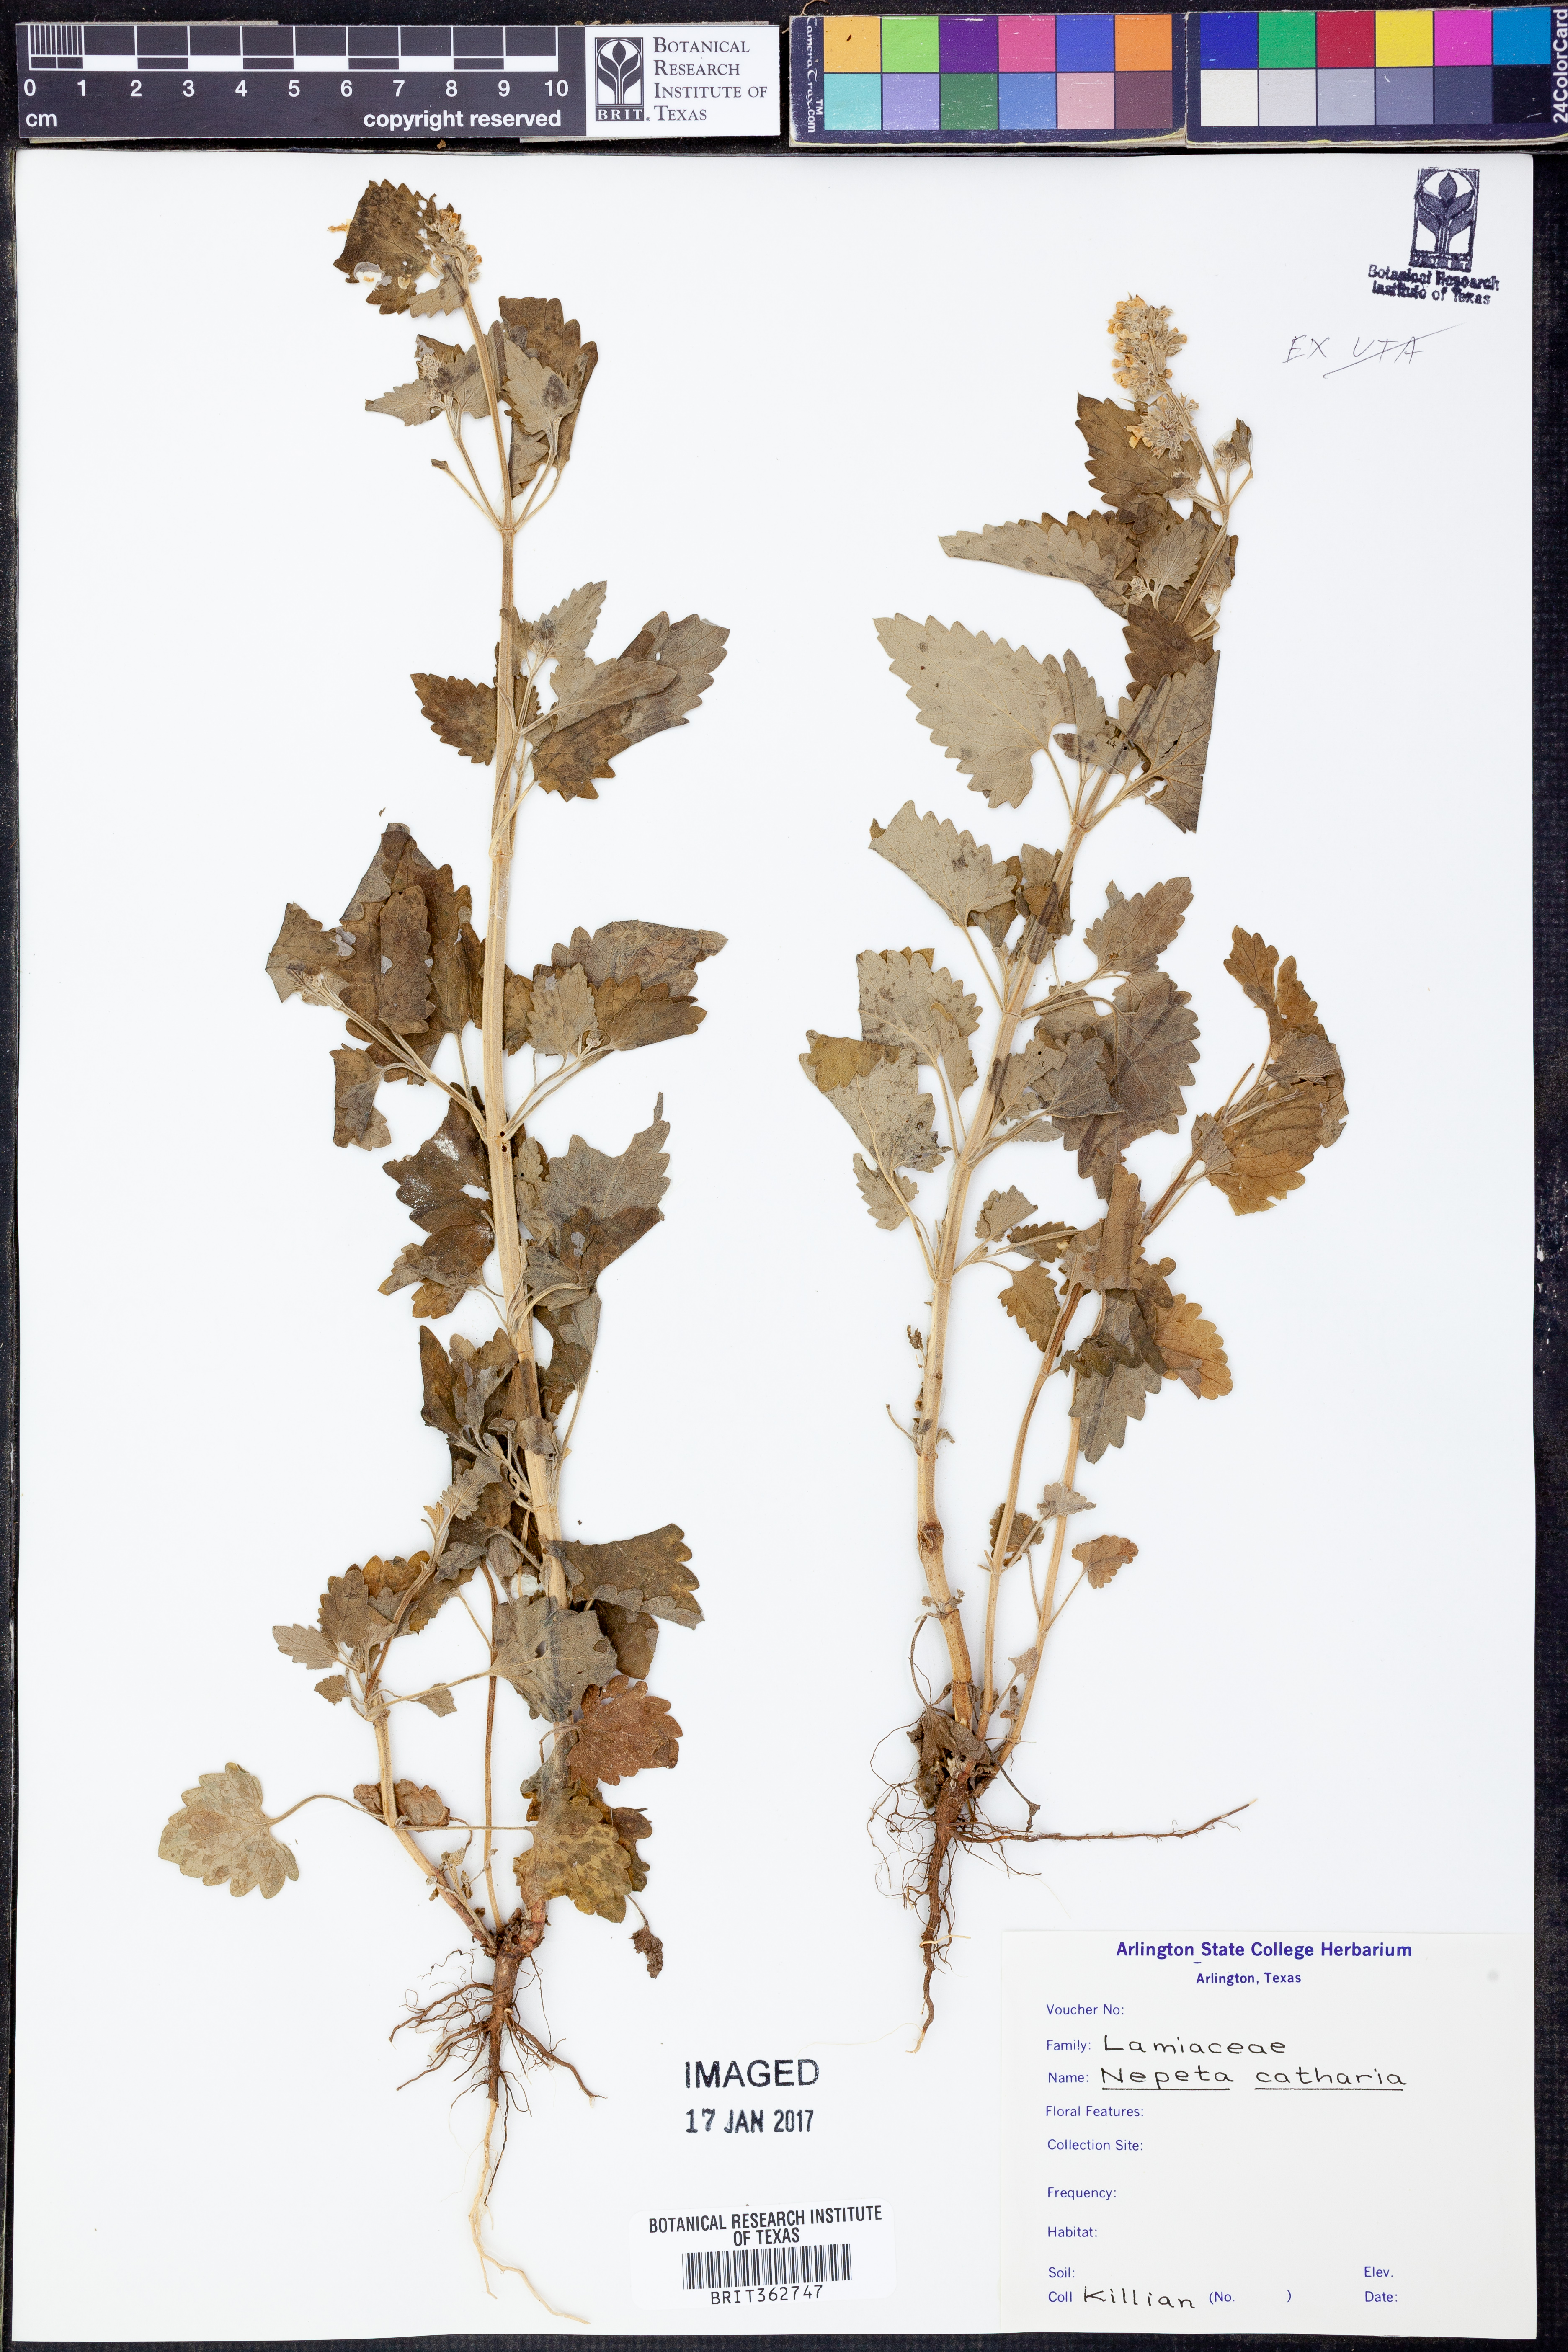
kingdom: Plantae
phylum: Tracheophyta
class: Magnoliopsida
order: Lamiales
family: Lamiaceae
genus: Nepeta
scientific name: Nepeta cataria
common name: Catnip
